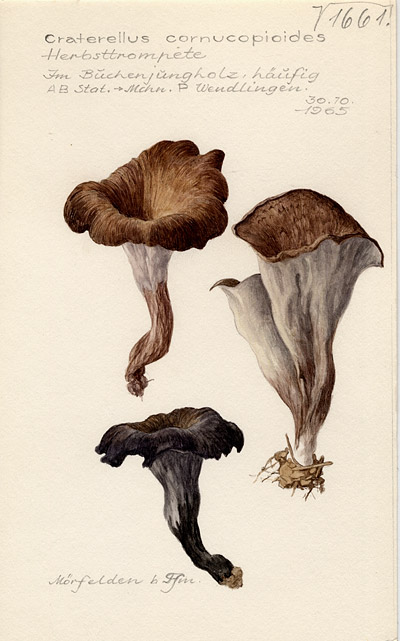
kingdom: Fungi
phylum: Basidiomycota
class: Agaricomycetes
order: Cantharellales
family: Hydnaceae
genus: Craterellus
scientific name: Craterellus cornucopioides
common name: Horn of plenty
